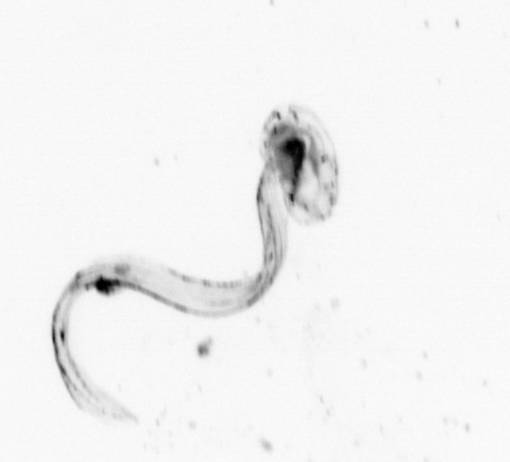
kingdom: Animalia
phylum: Chordata
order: Copelata
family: Fritillariidae
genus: Appendicularia
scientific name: Appendicularia
